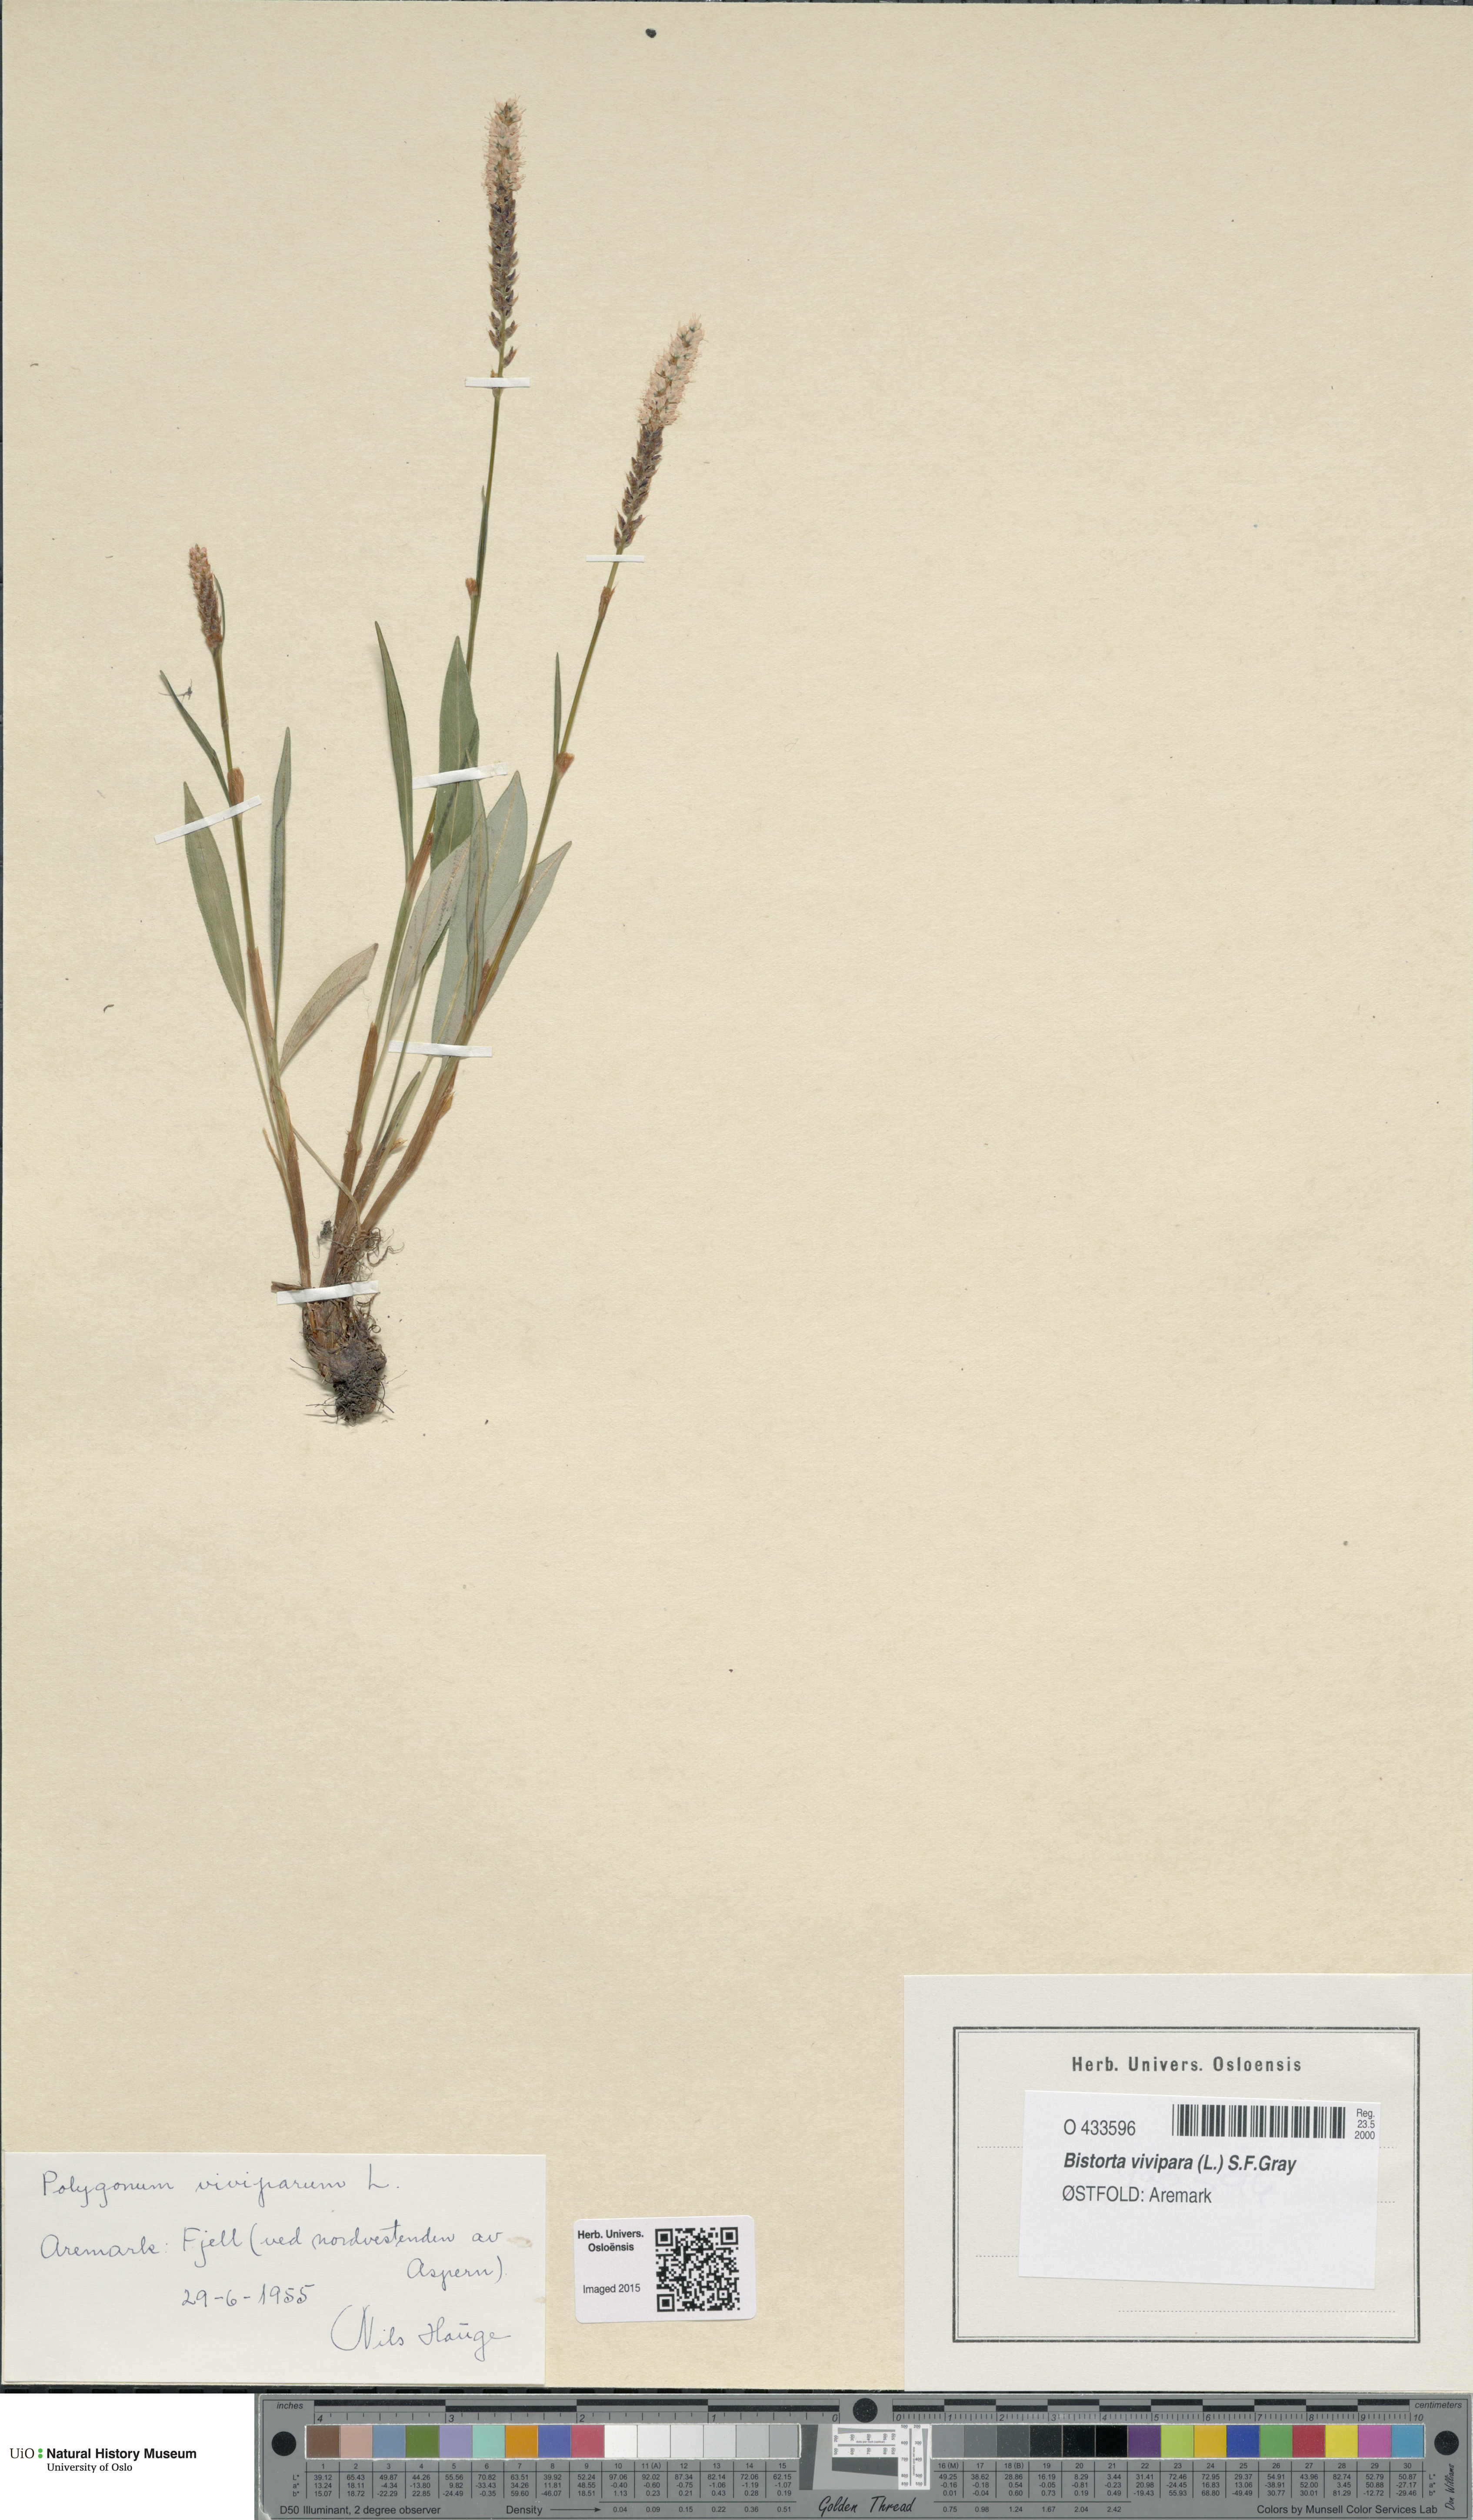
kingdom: Plantae
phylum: Tracheophyta
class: Magnoliopsida
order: Caryophyllales
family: Polygonaceae
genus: Bistorta
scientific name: Bistorta vivipara
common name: Alpine bistort
